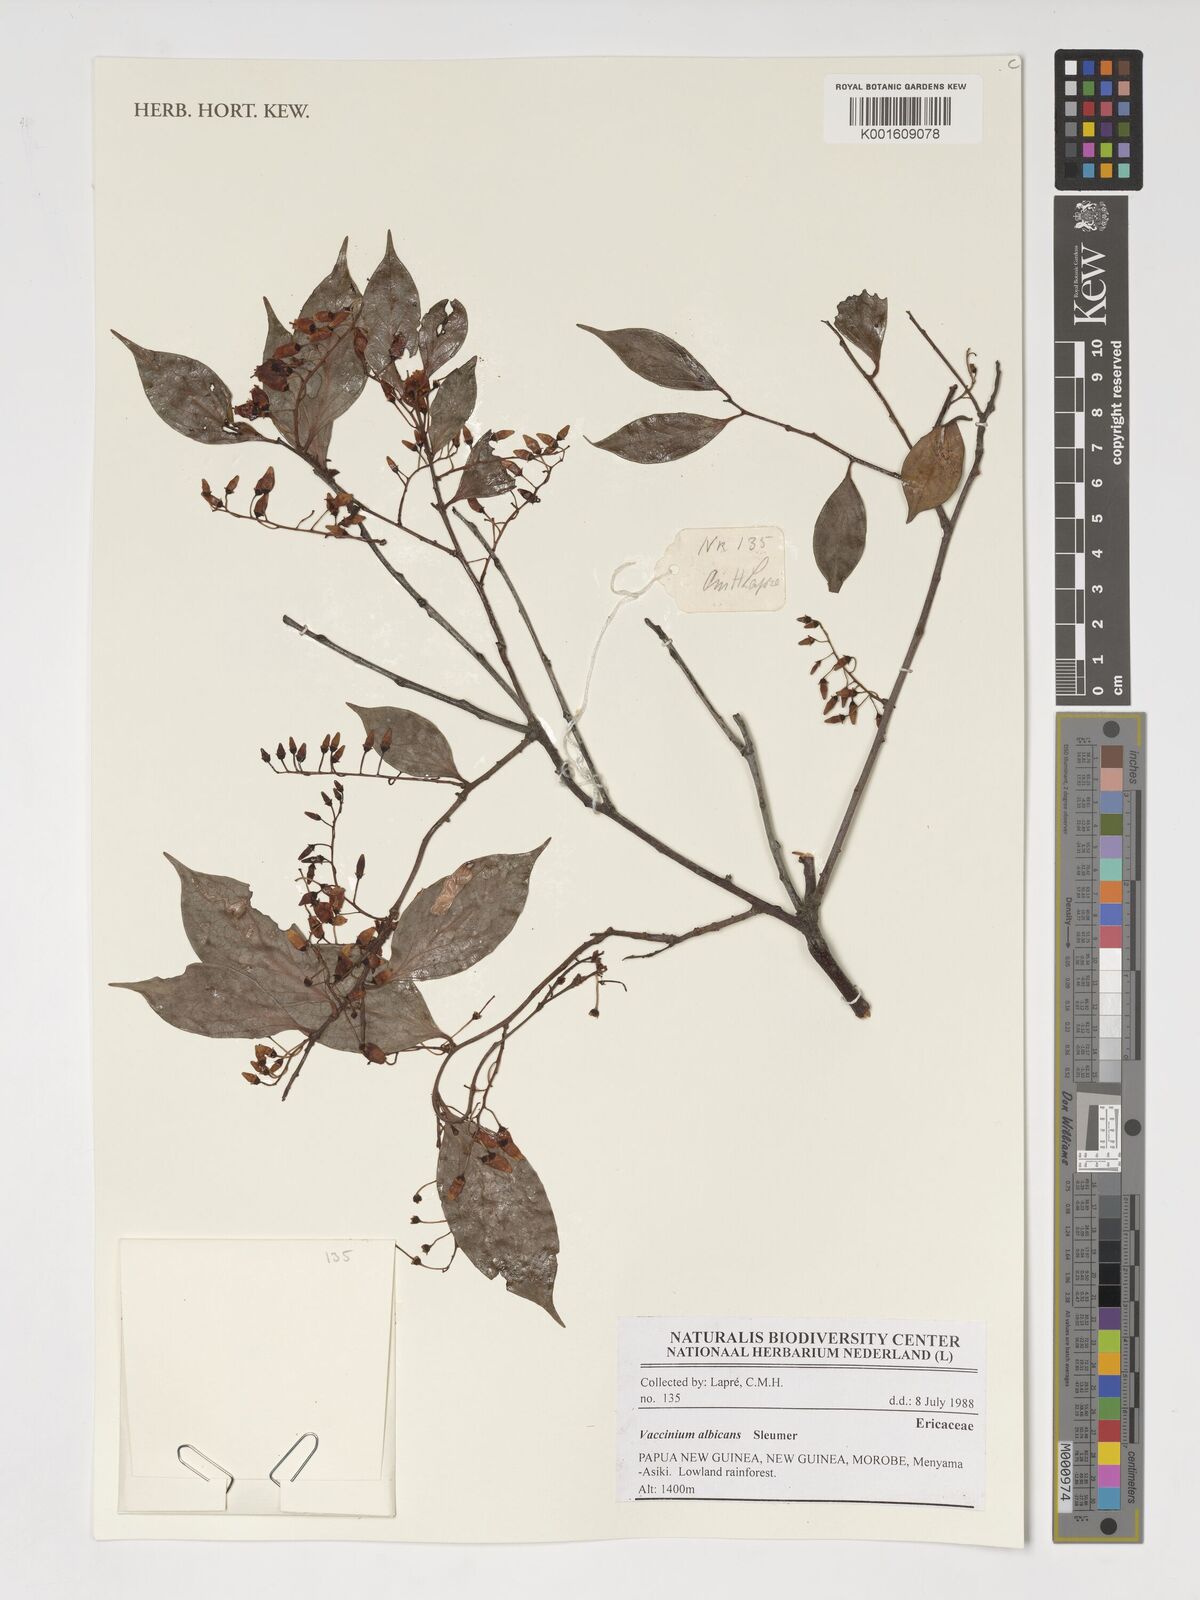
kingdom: Plantae
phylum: Tracheophyta
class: Magnoliopsida
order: Ericales
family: Ericaceae
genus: Vaccinium
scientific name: Vaccinium albicans
